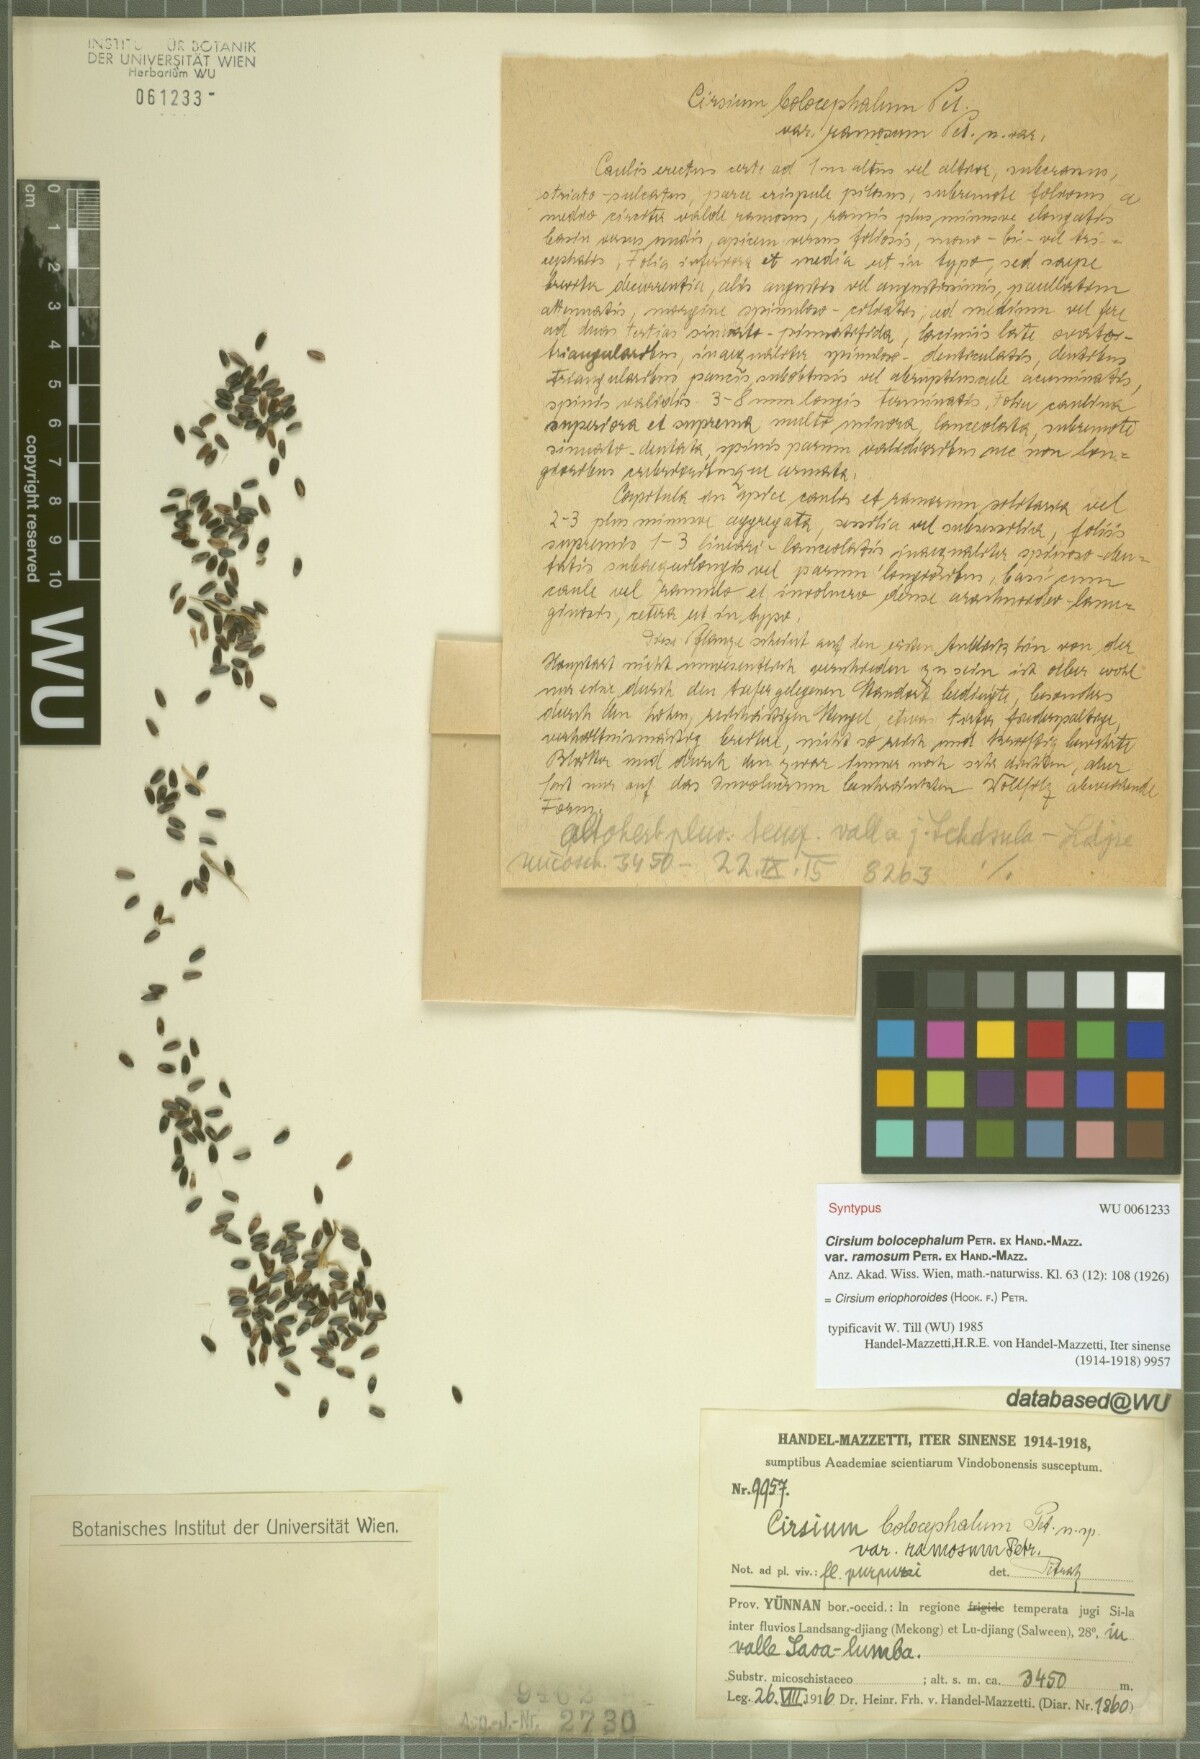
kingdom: Plantae
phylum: Tracheophyta
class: Magnoliopsida
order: Asterales
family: Asteraceae
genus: Cirsium
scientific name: Cirsium eriophoroides
